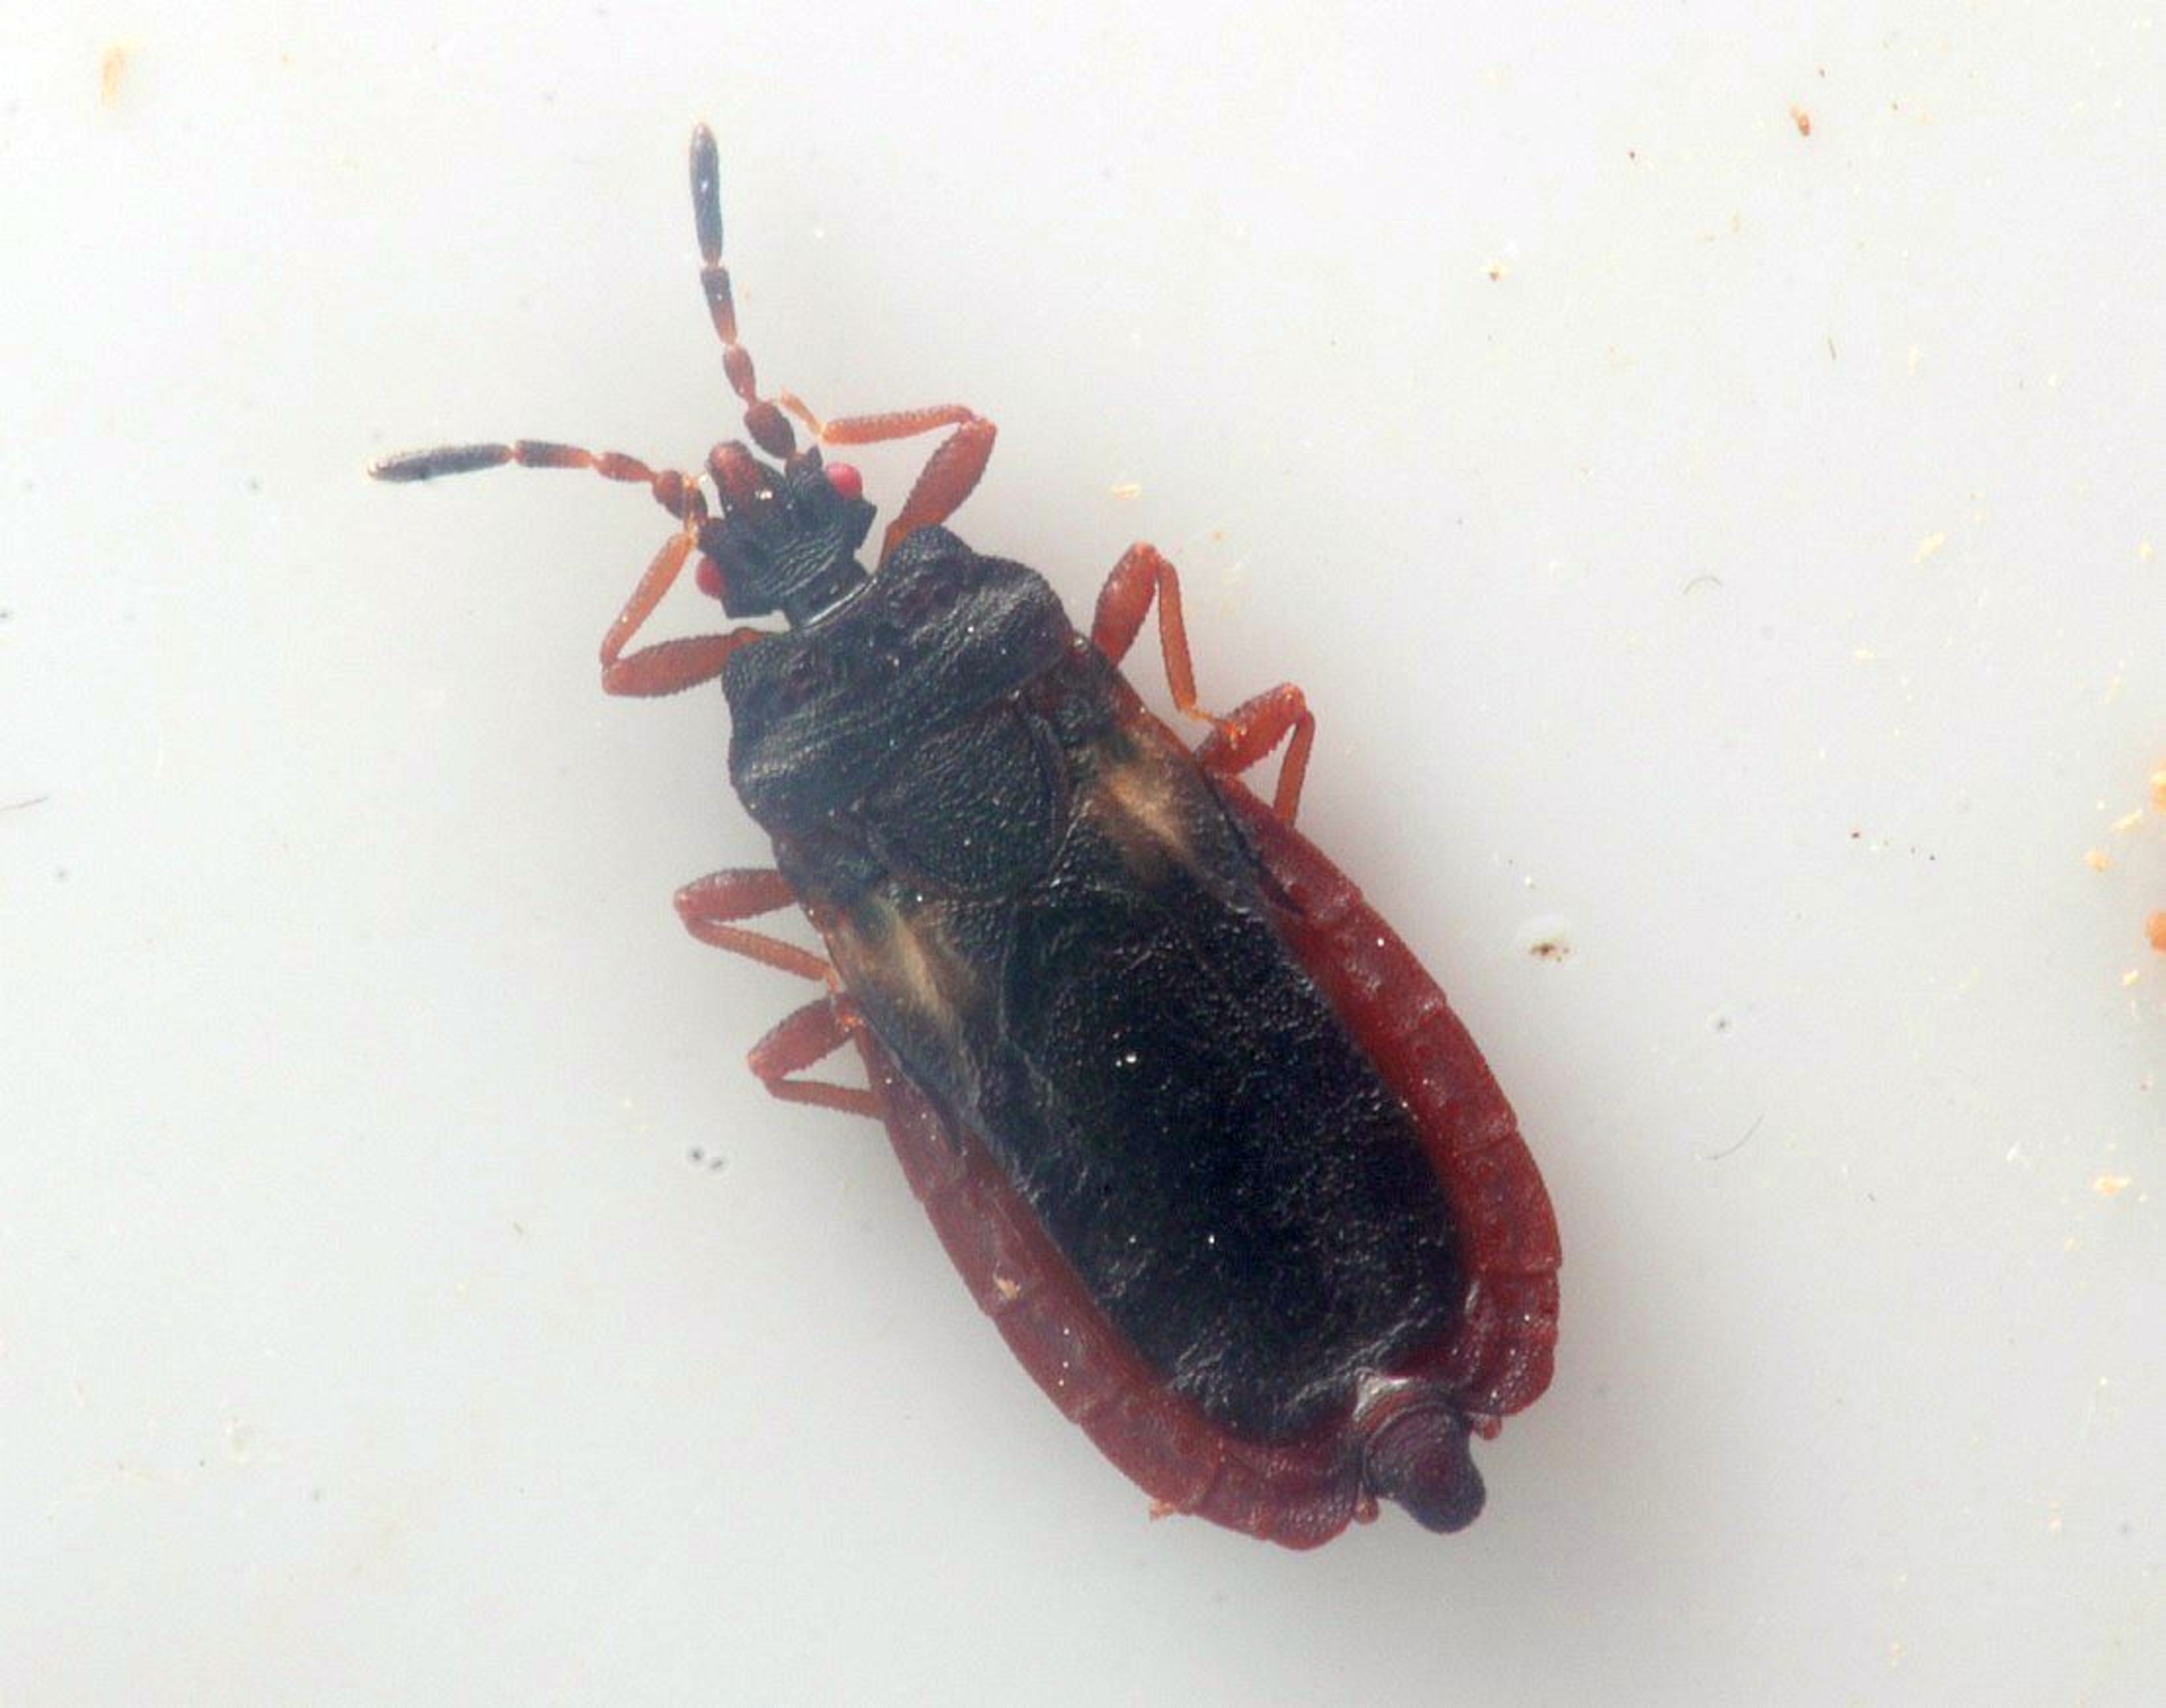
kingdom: Animalia
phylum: Arthropoda
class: Insecta
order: Hemiptera
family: Aradidae
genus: Aneurus
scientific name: Aneurus avenius
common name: Flad risgærdetæge
